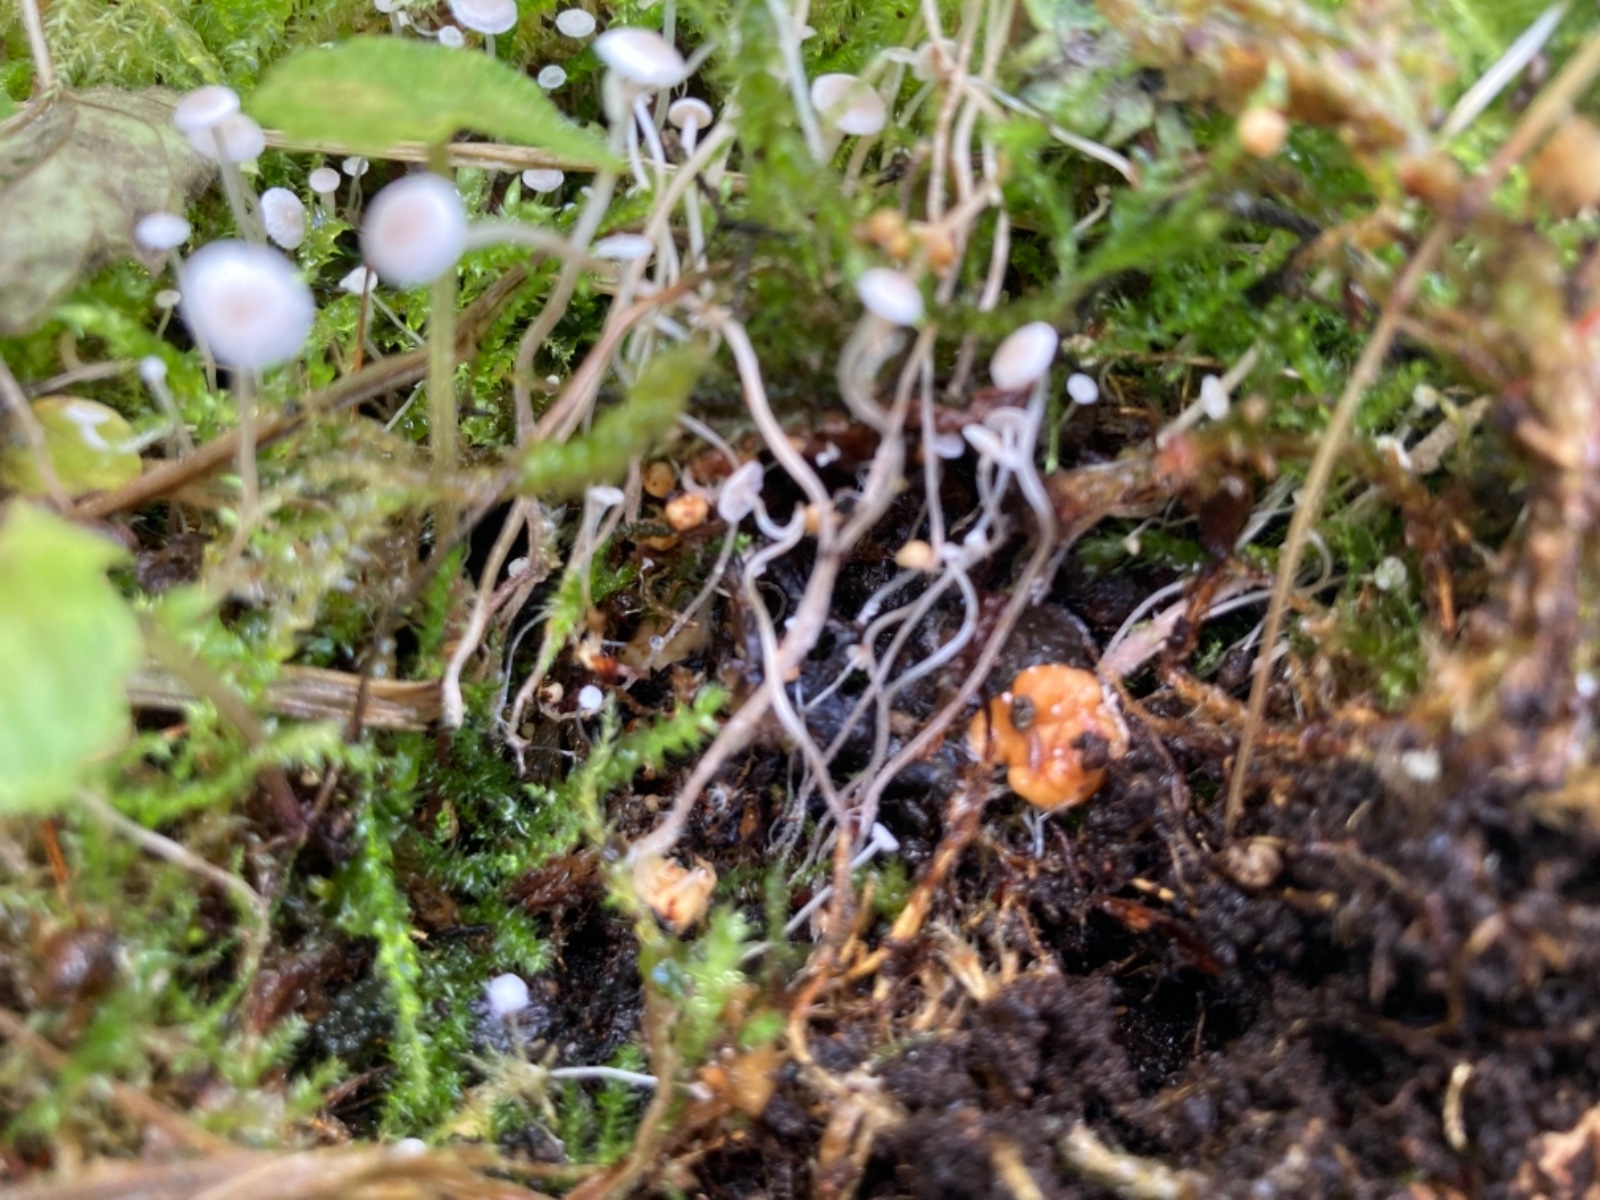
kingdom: Fungi
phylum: Basidiomycota
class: Agaricomycetes
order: Agaricales
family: Tricholomataceae
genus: Collybia
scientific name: Collybia cookei
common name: gulknoldet lighat
